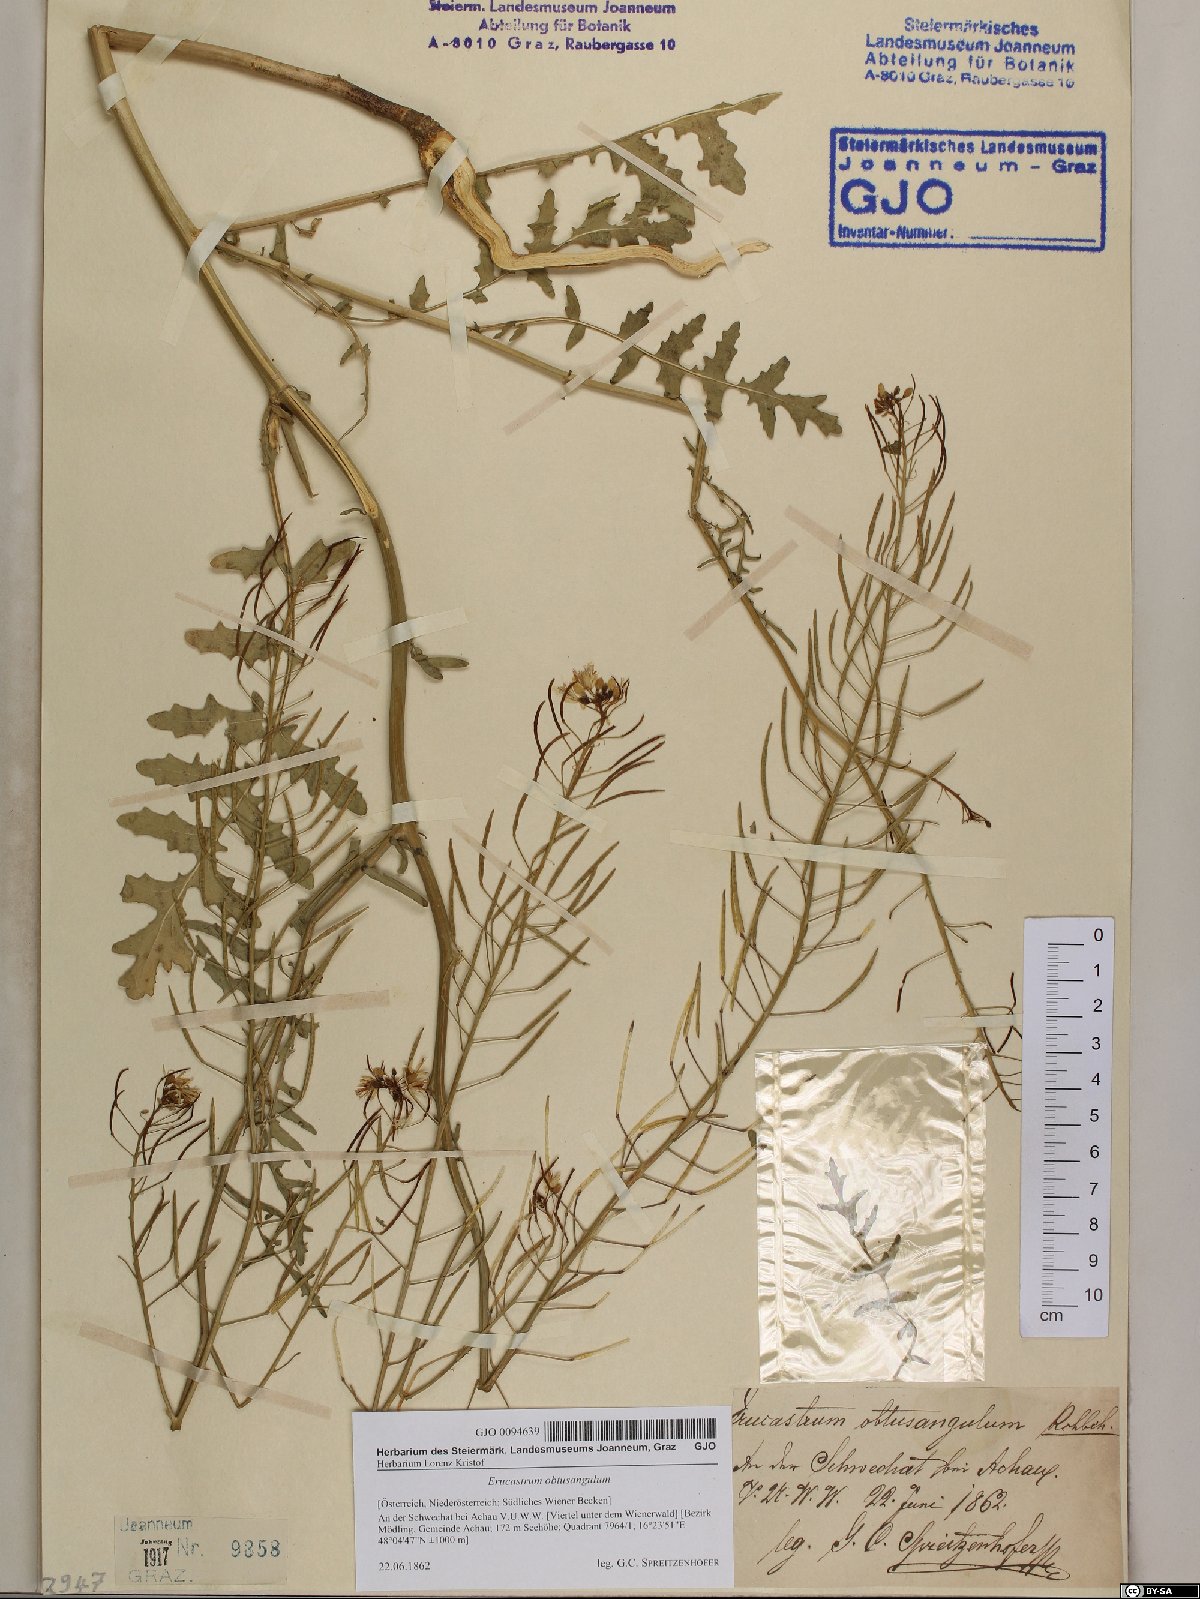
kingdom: Plantae
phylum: Tracheophyta
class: Magnoliopsida
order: Brassicales
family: Brassicaceae
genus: Erucastrum
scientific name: Erucastrum nasturtiifolium
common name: Watercress-leaf rocket
